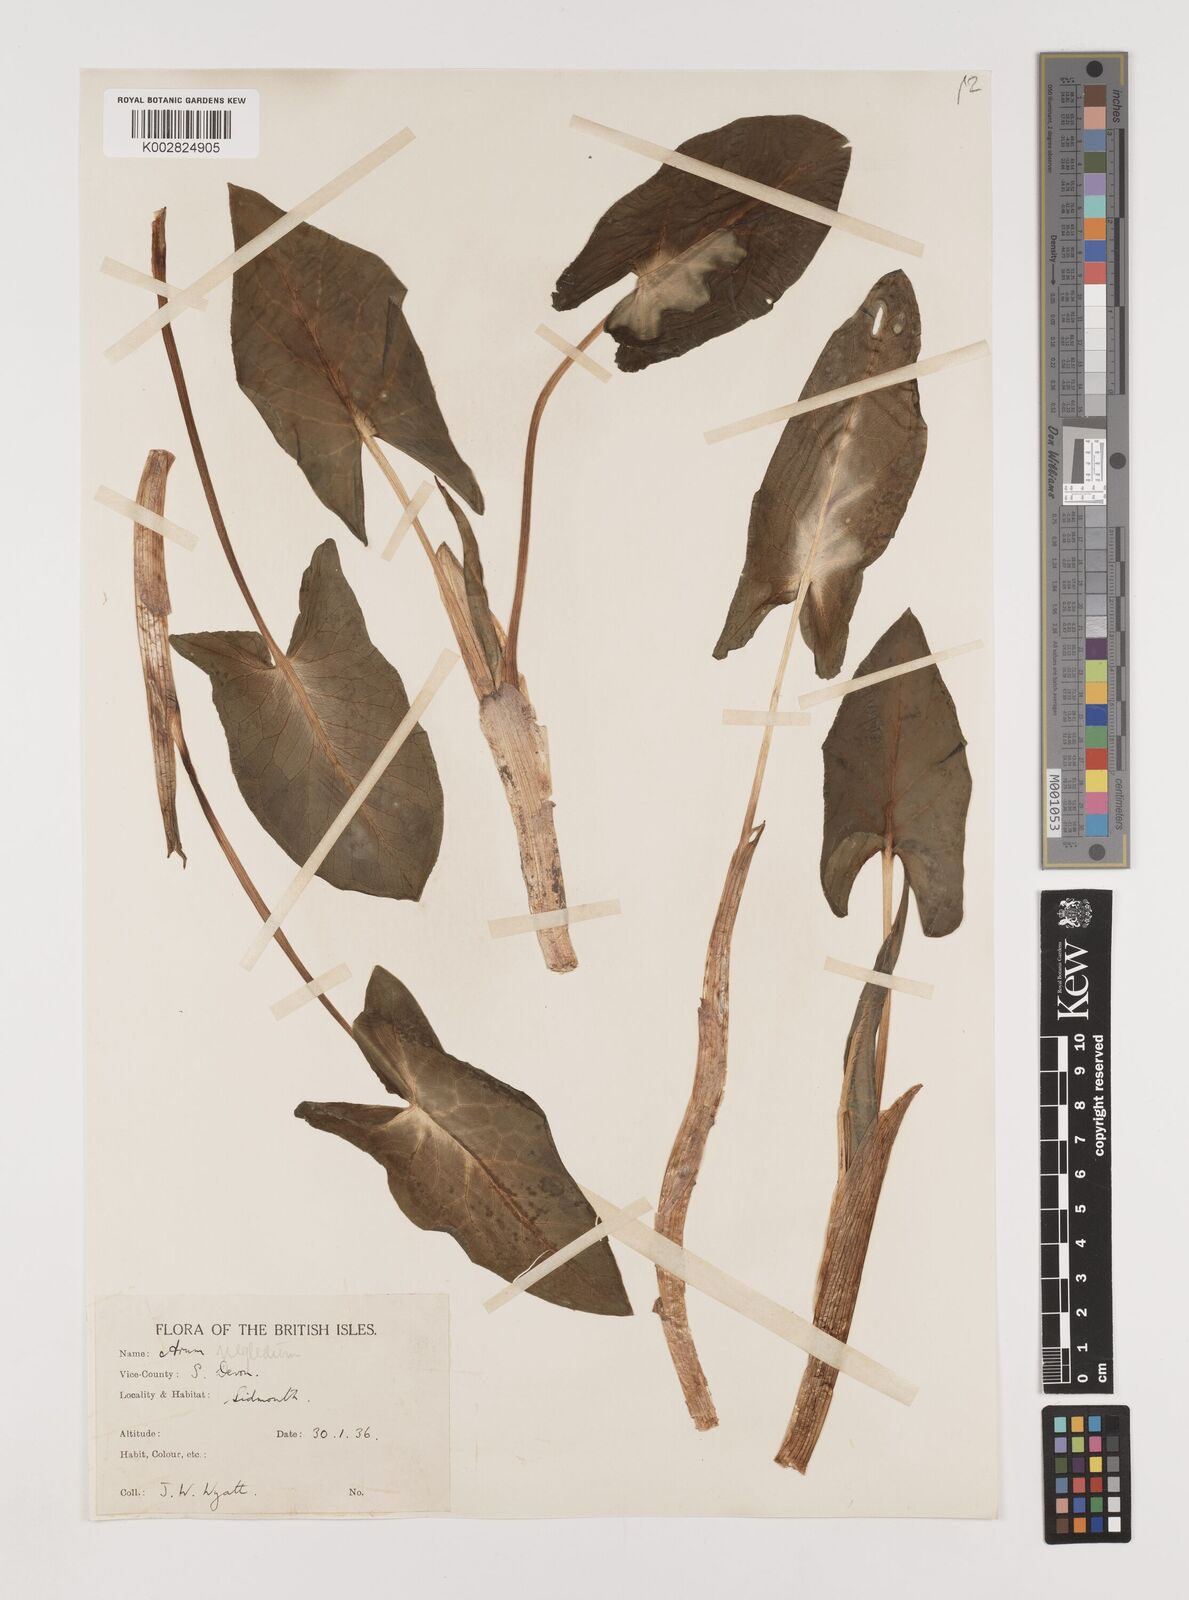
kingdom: Plantae
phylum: Tracheophyta
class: Liliopsida
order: Alismatales
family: Araceae
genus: Arum
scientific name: Arum italicum
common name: Italian lords-and-ladies
